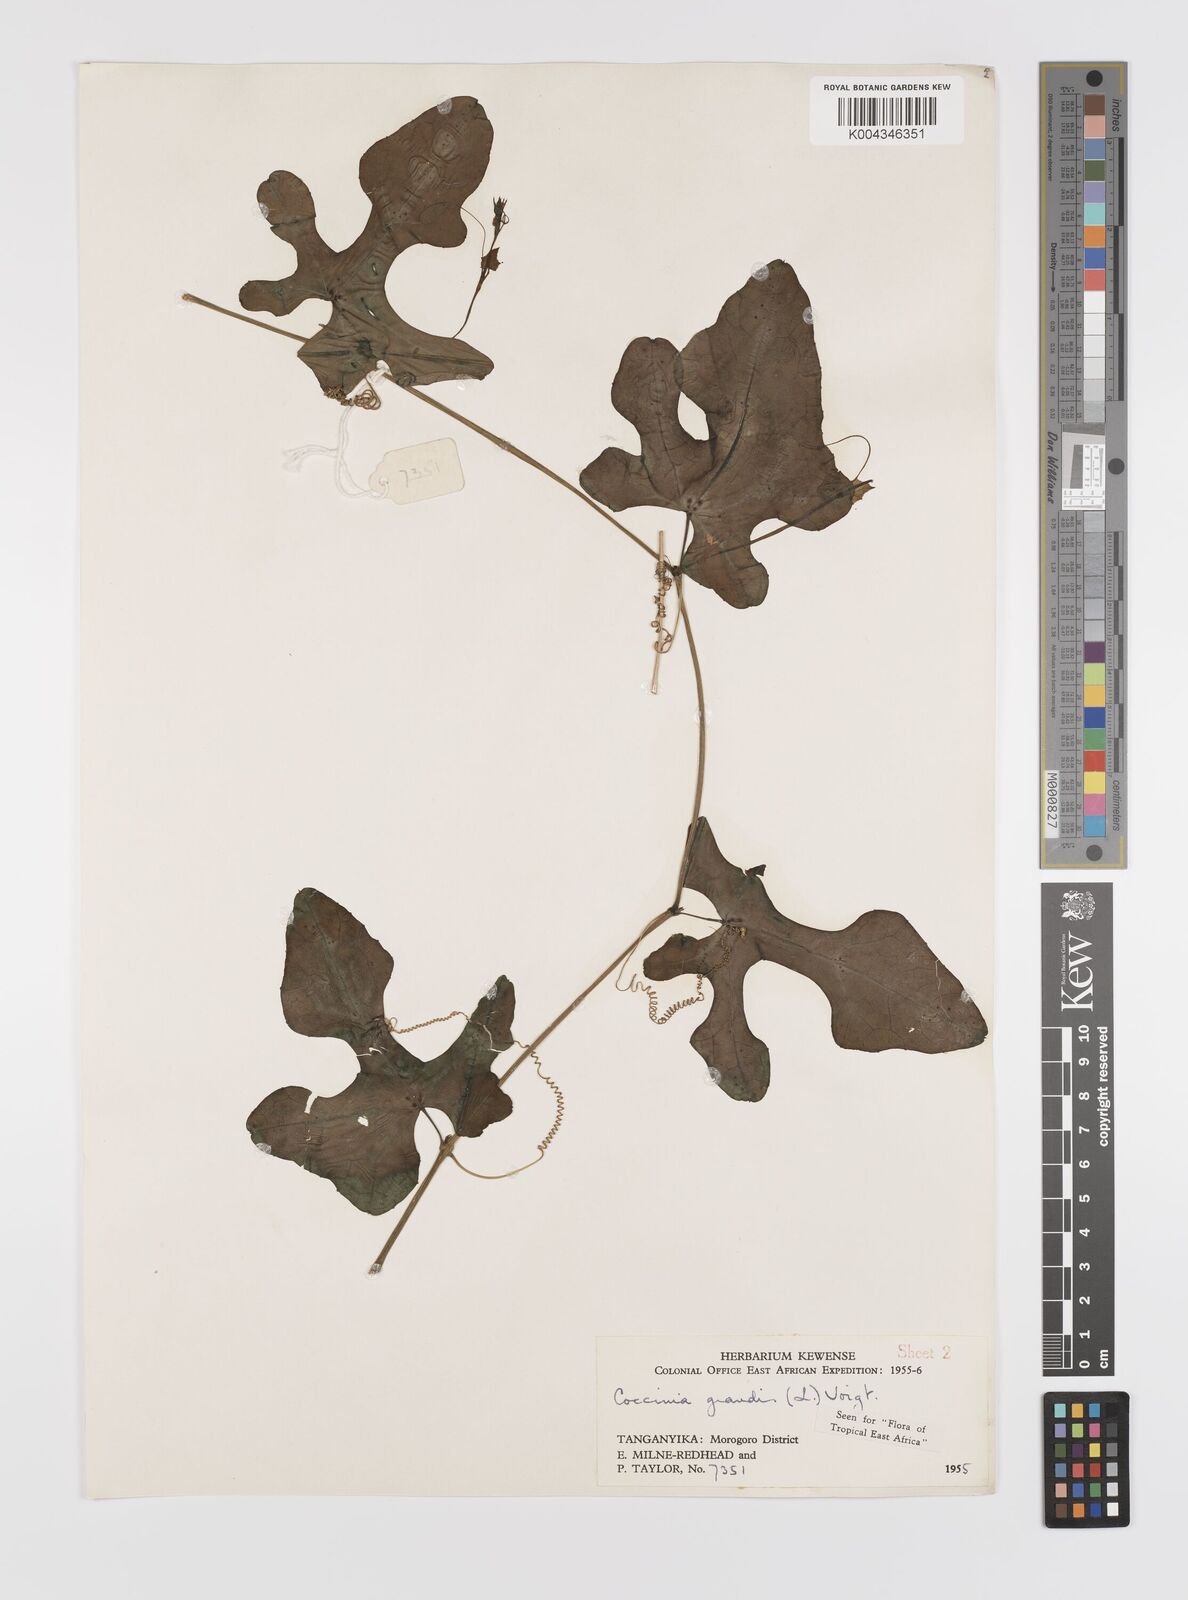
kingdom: Plantae
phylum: Tracheophyta
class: Magnoliopsida
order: Cucurbitales
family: Cucurbitaceae
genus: Coccinia
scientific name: Coccinia grandis
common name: Ivy gourd
